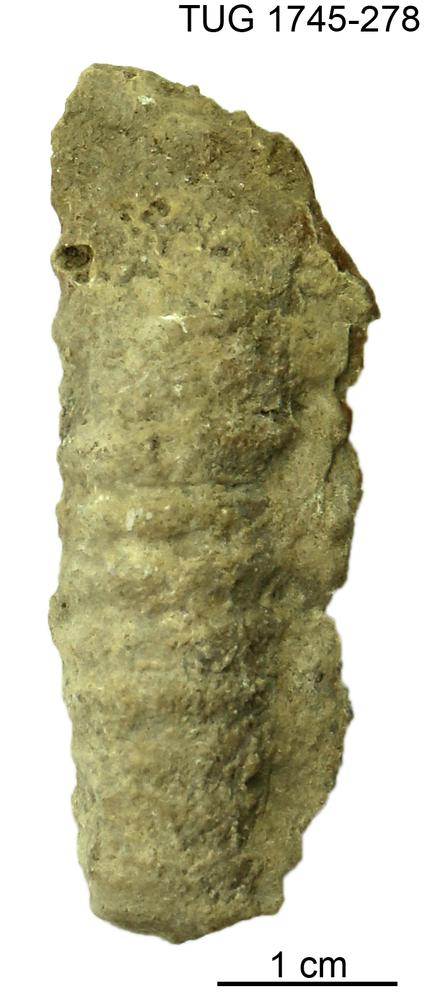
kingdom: Animalia
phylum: Mollusca
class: Cephalopoda
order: Orthocerida
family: Pseudorthoceratidae
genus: Spyroceras
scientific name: Spyroceras
